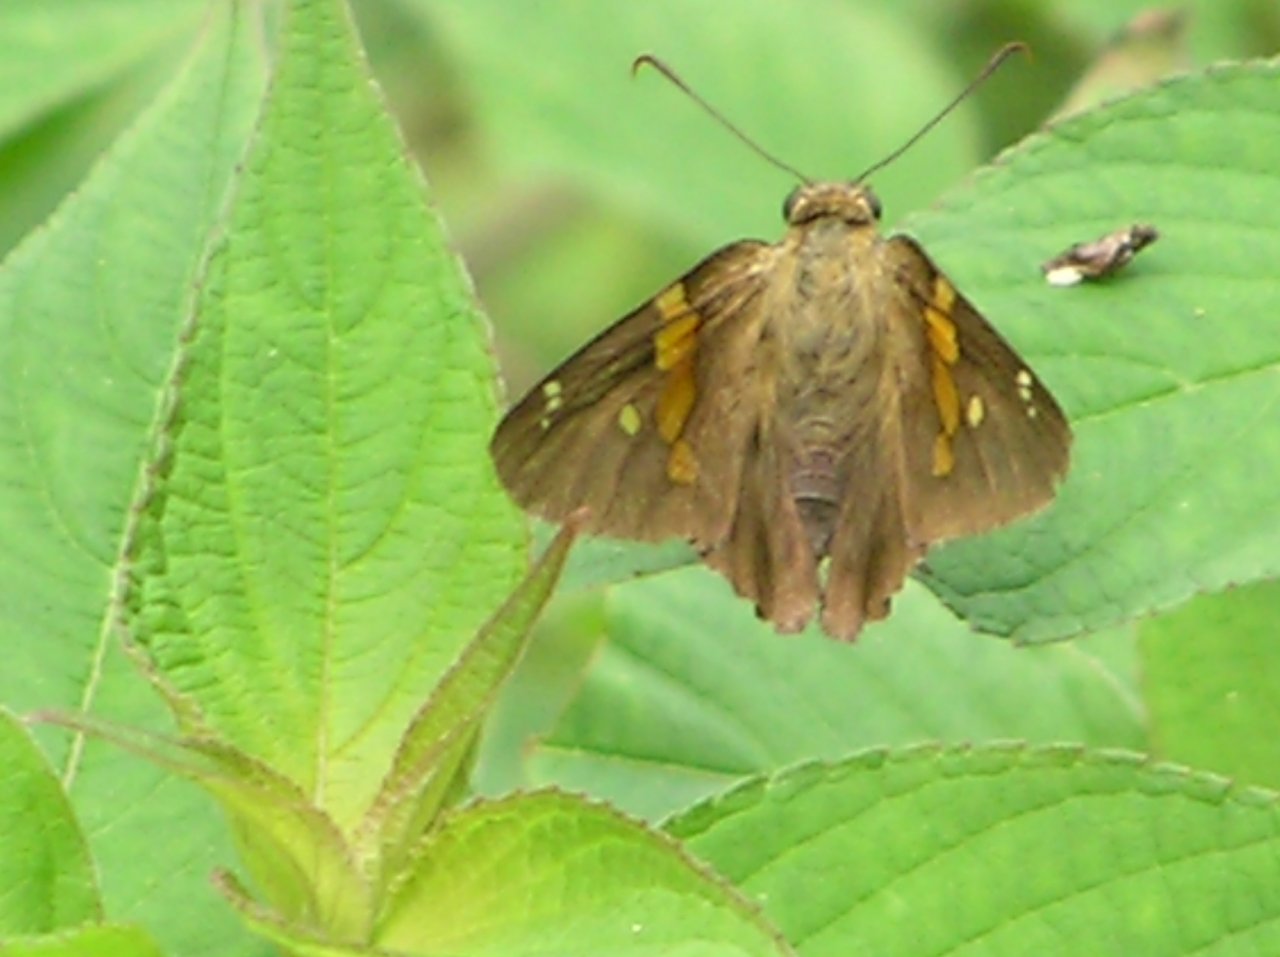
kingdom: Animalia
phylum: Arthropoda
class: Insecta
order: Lepidoptera
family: Hesperiidae
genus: Epargyreus
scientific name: Epargyreus clarus
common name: Silver-spotted Skipper
